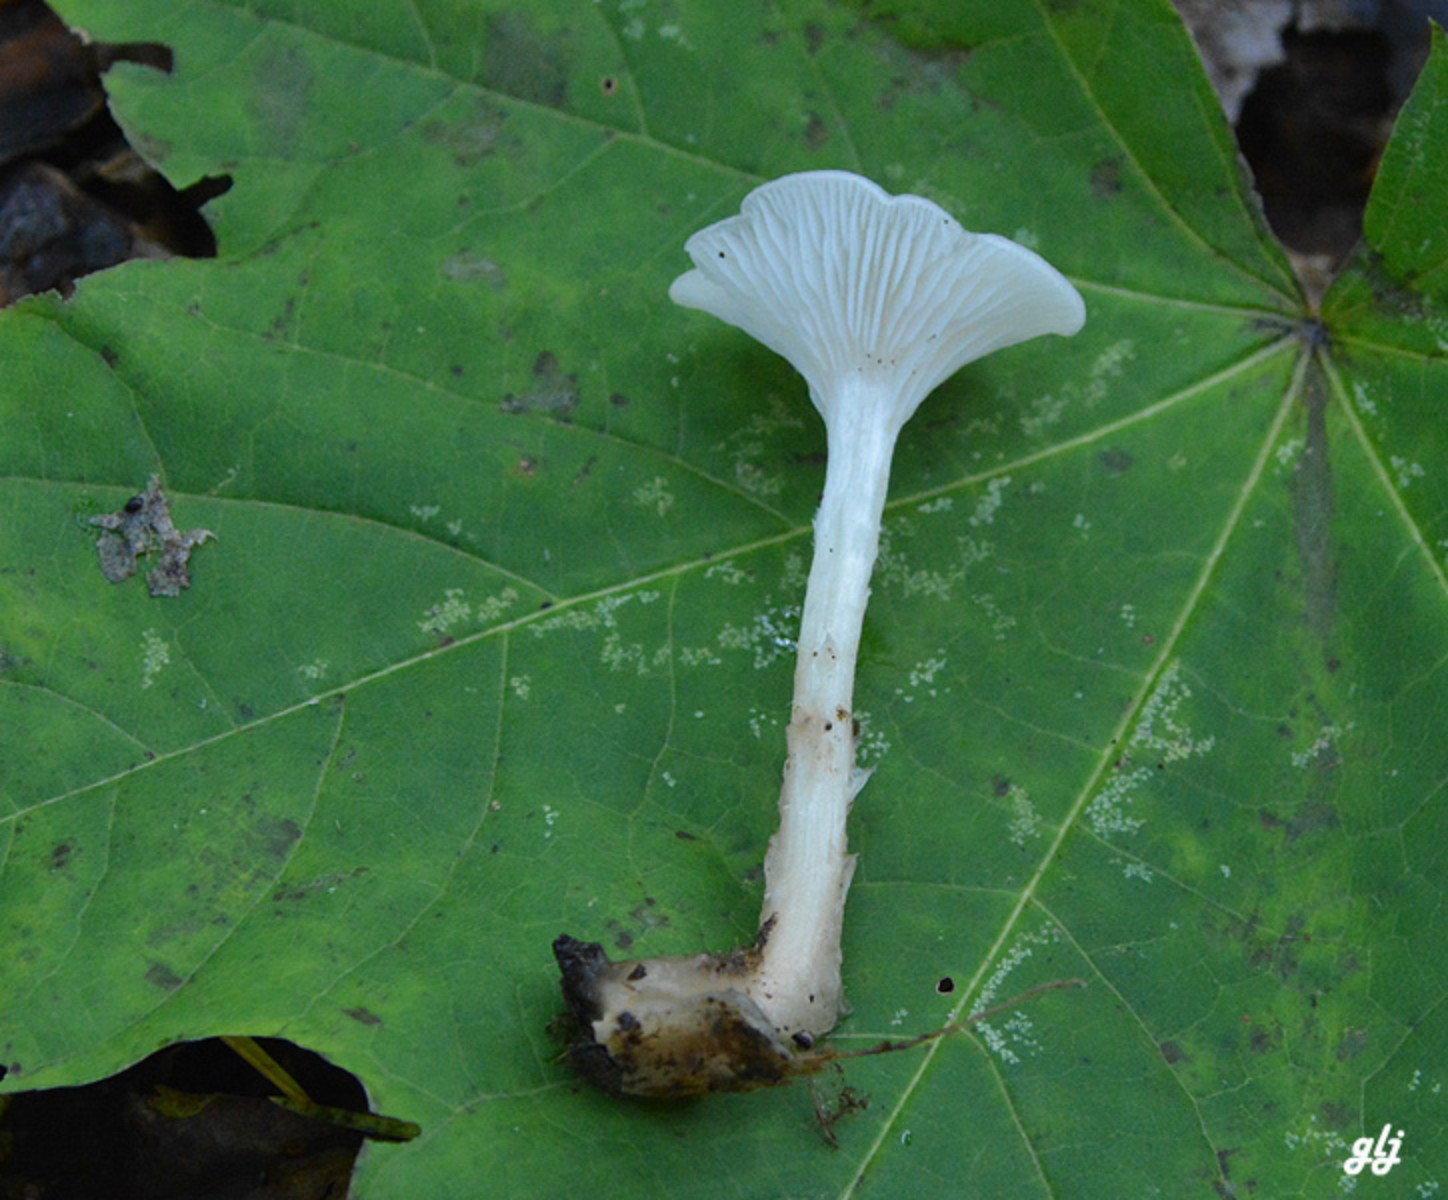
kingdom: Fungi
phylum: Basidiomycota
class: Agaricomycetes
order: Agaricales
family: Tricholomataceae
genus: Clitocybe
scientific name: Clitocybe phaeophthalma
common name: stinkende tragthat
